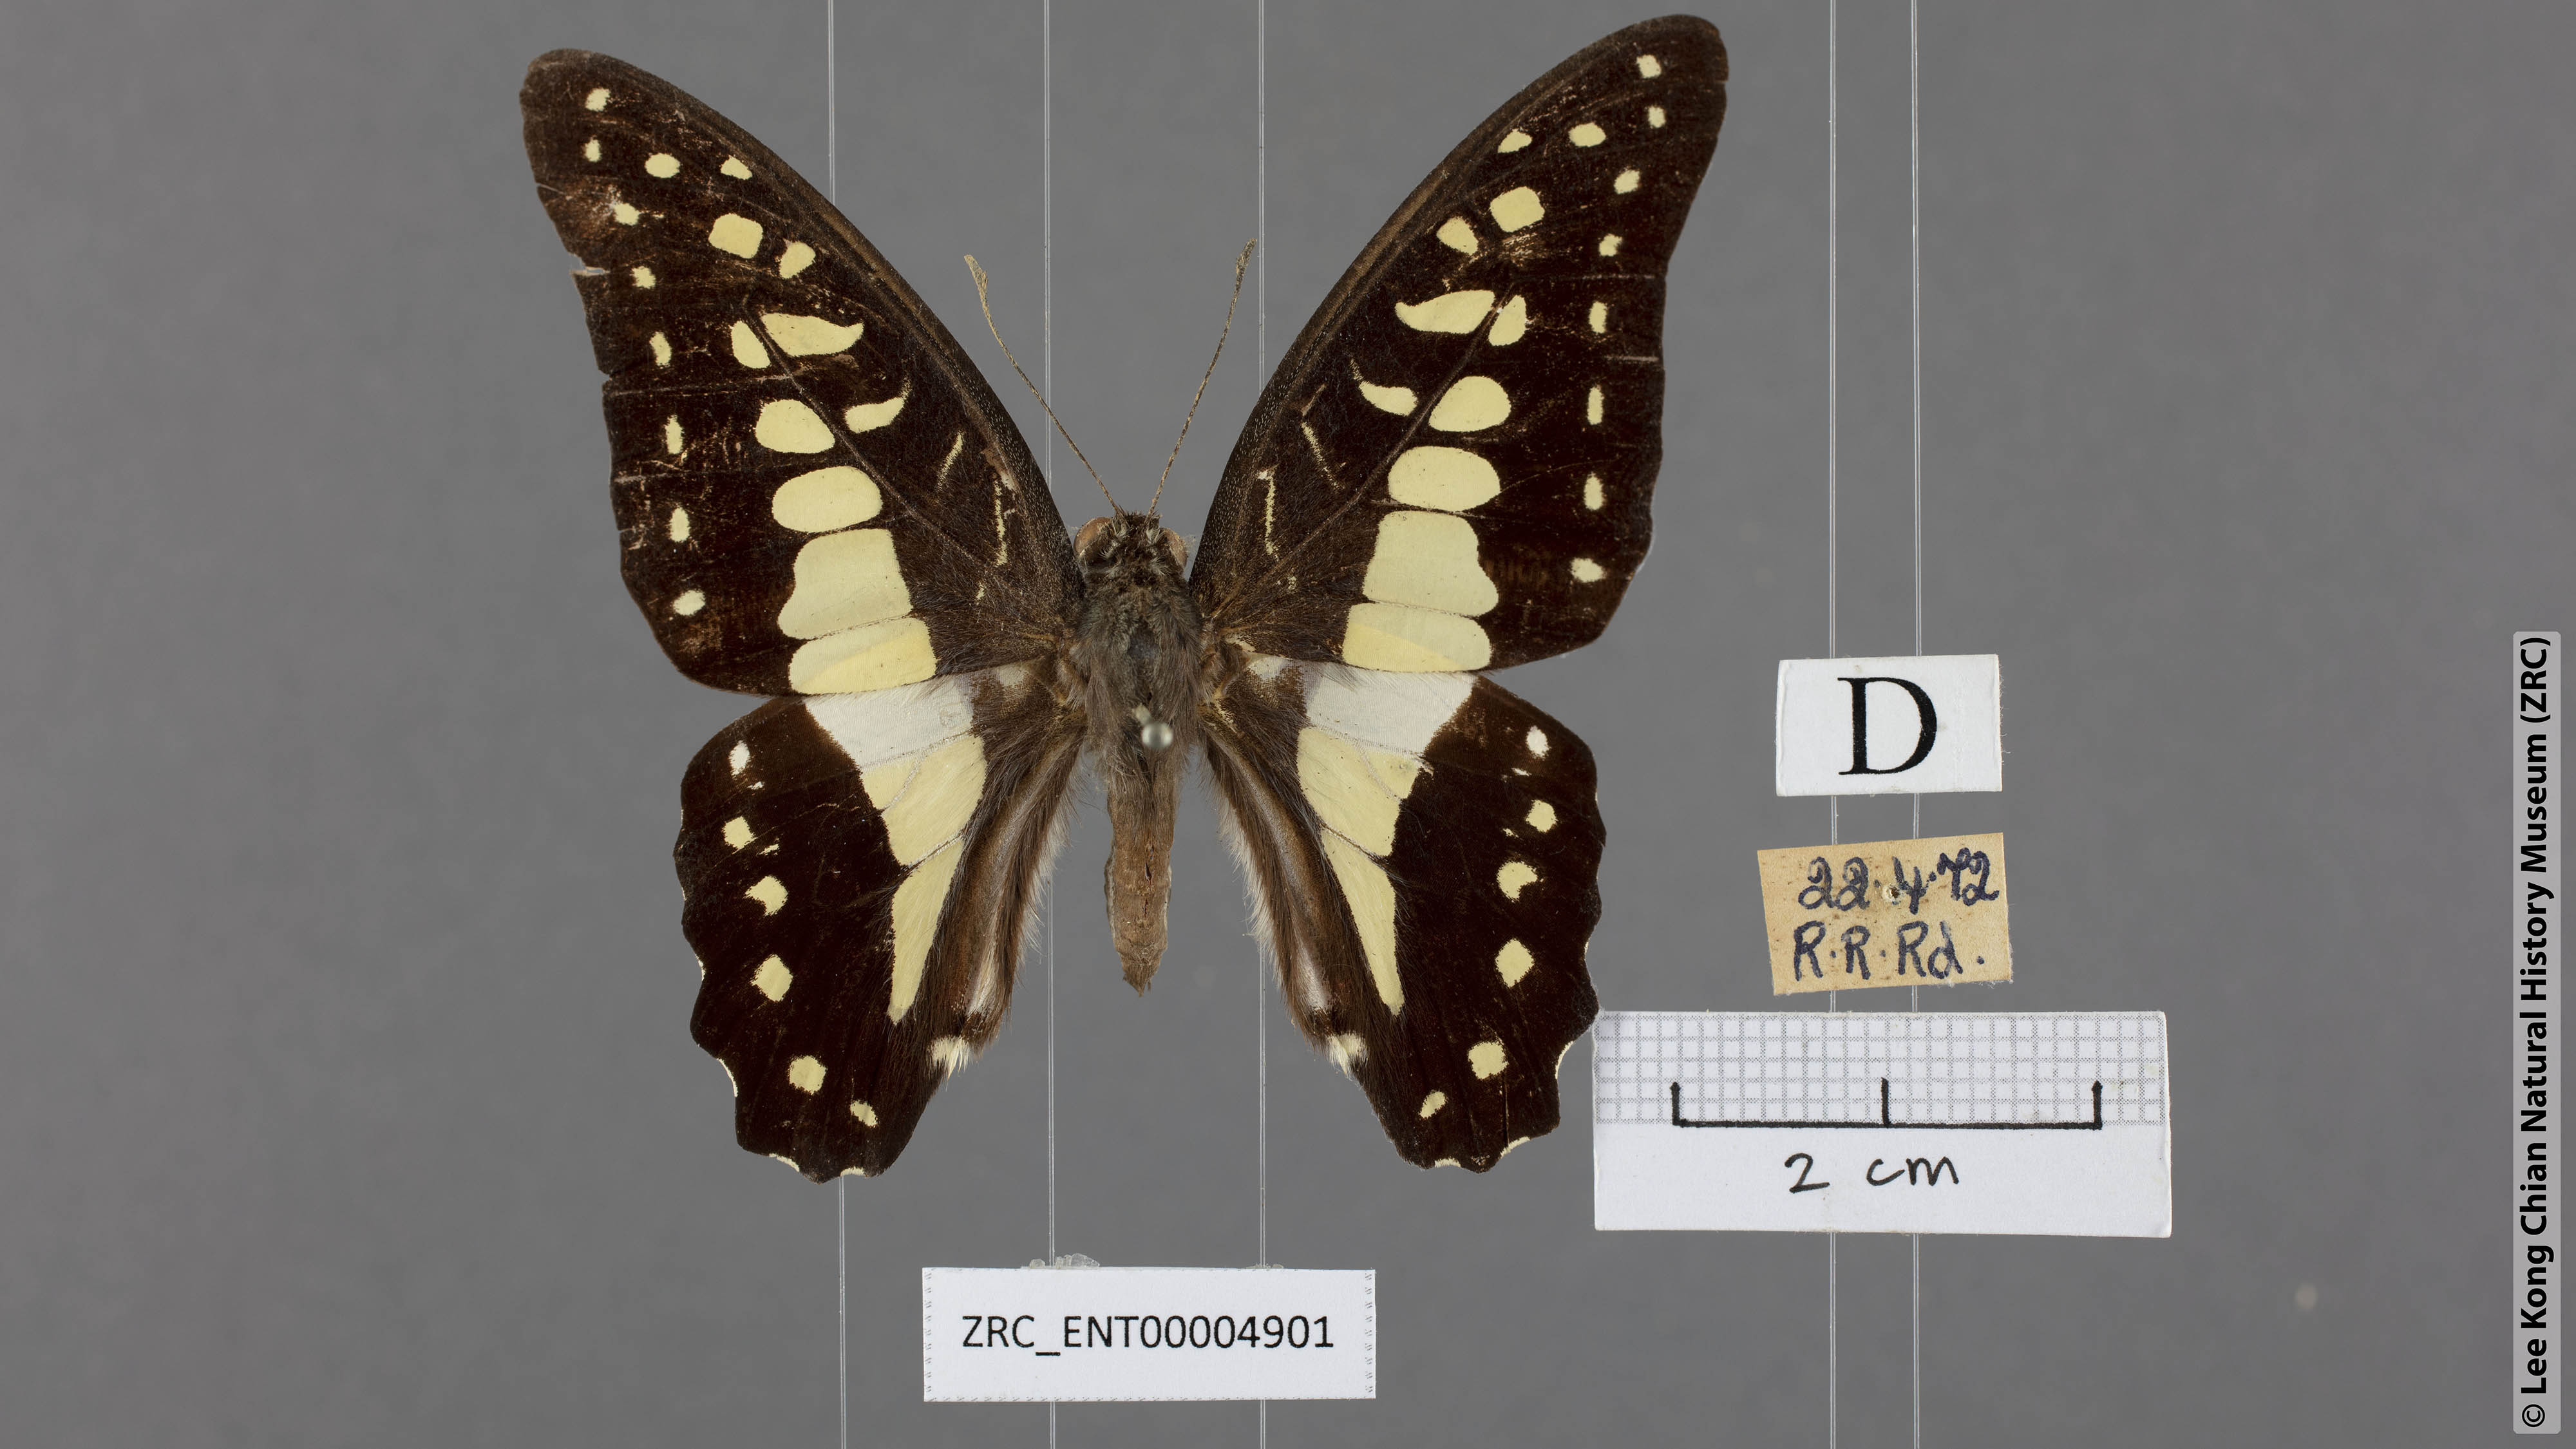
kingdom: Animalia
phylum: Arthropoda
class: Insecta
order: Lepidoptera
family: Papilionidae
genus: Graphium
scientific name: Graphium evemon
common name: Lesser jay
